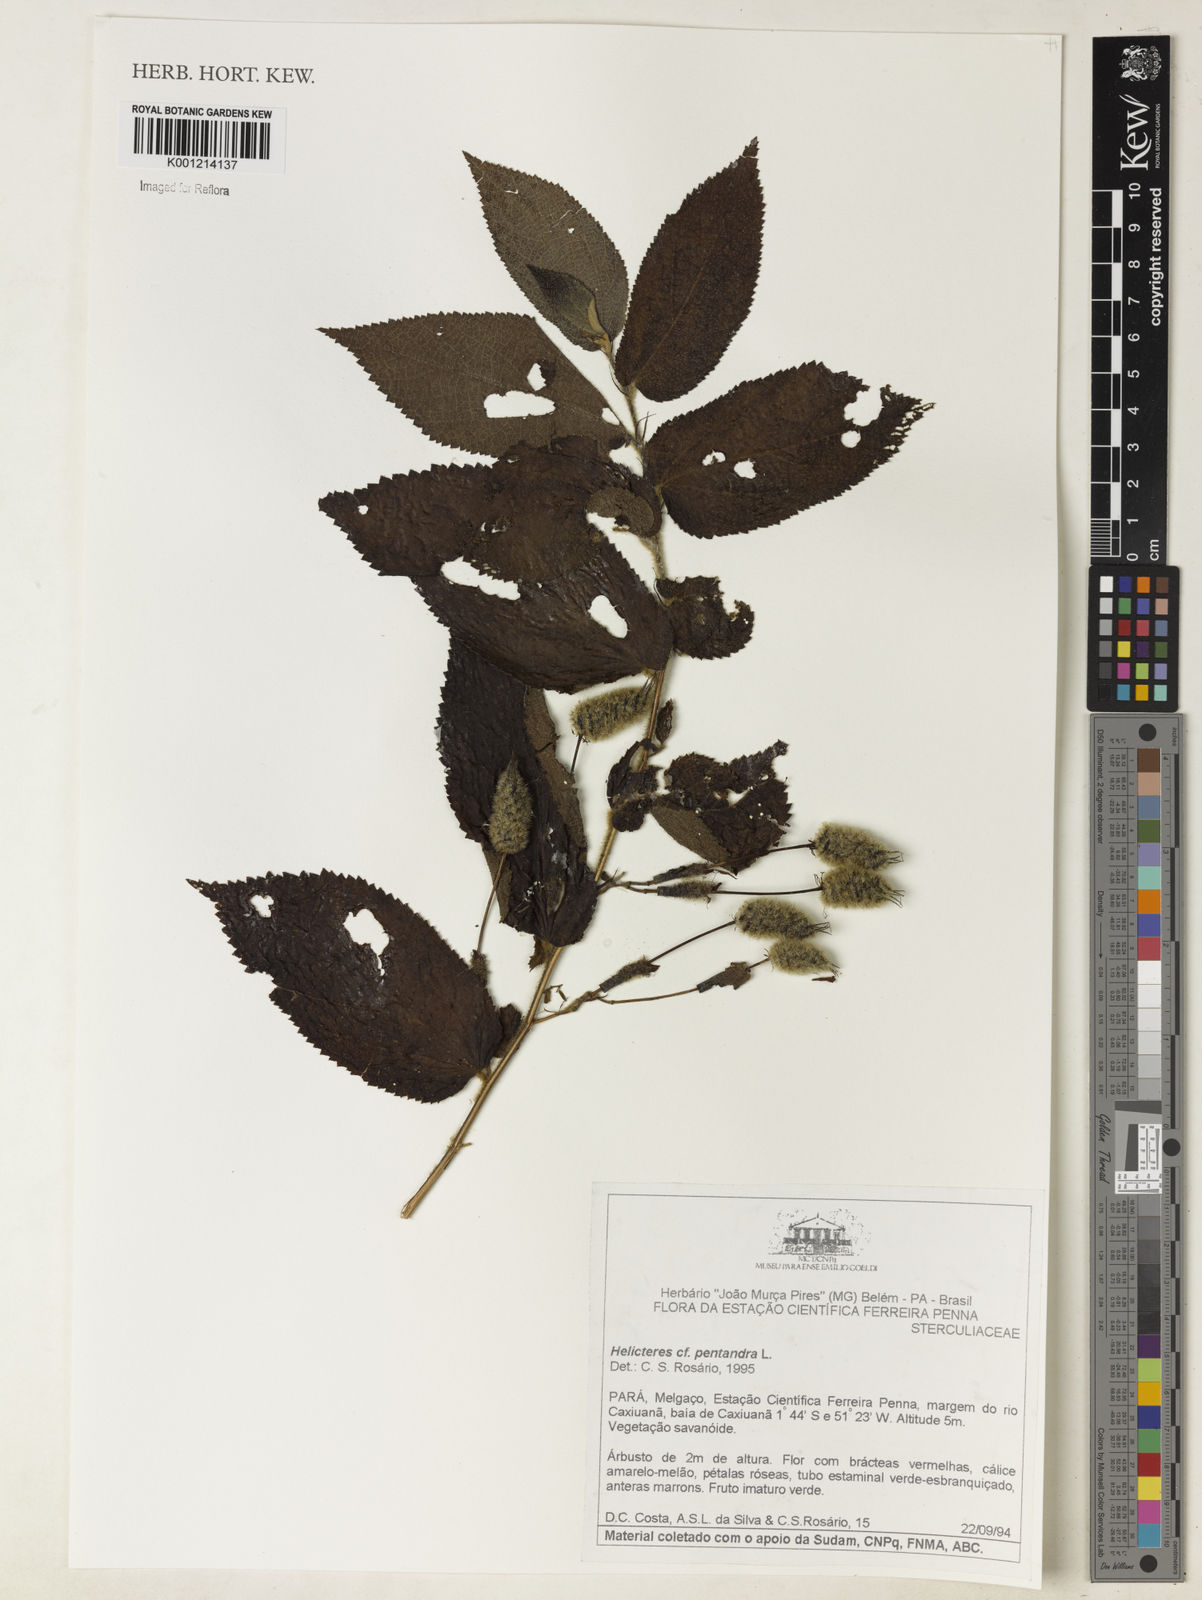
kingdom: Plantae
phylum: Tracheophyta
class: Magnoliopsida
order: Malvales
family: Malvaceae
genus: Helicteres
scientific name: Helicteres pentandra
